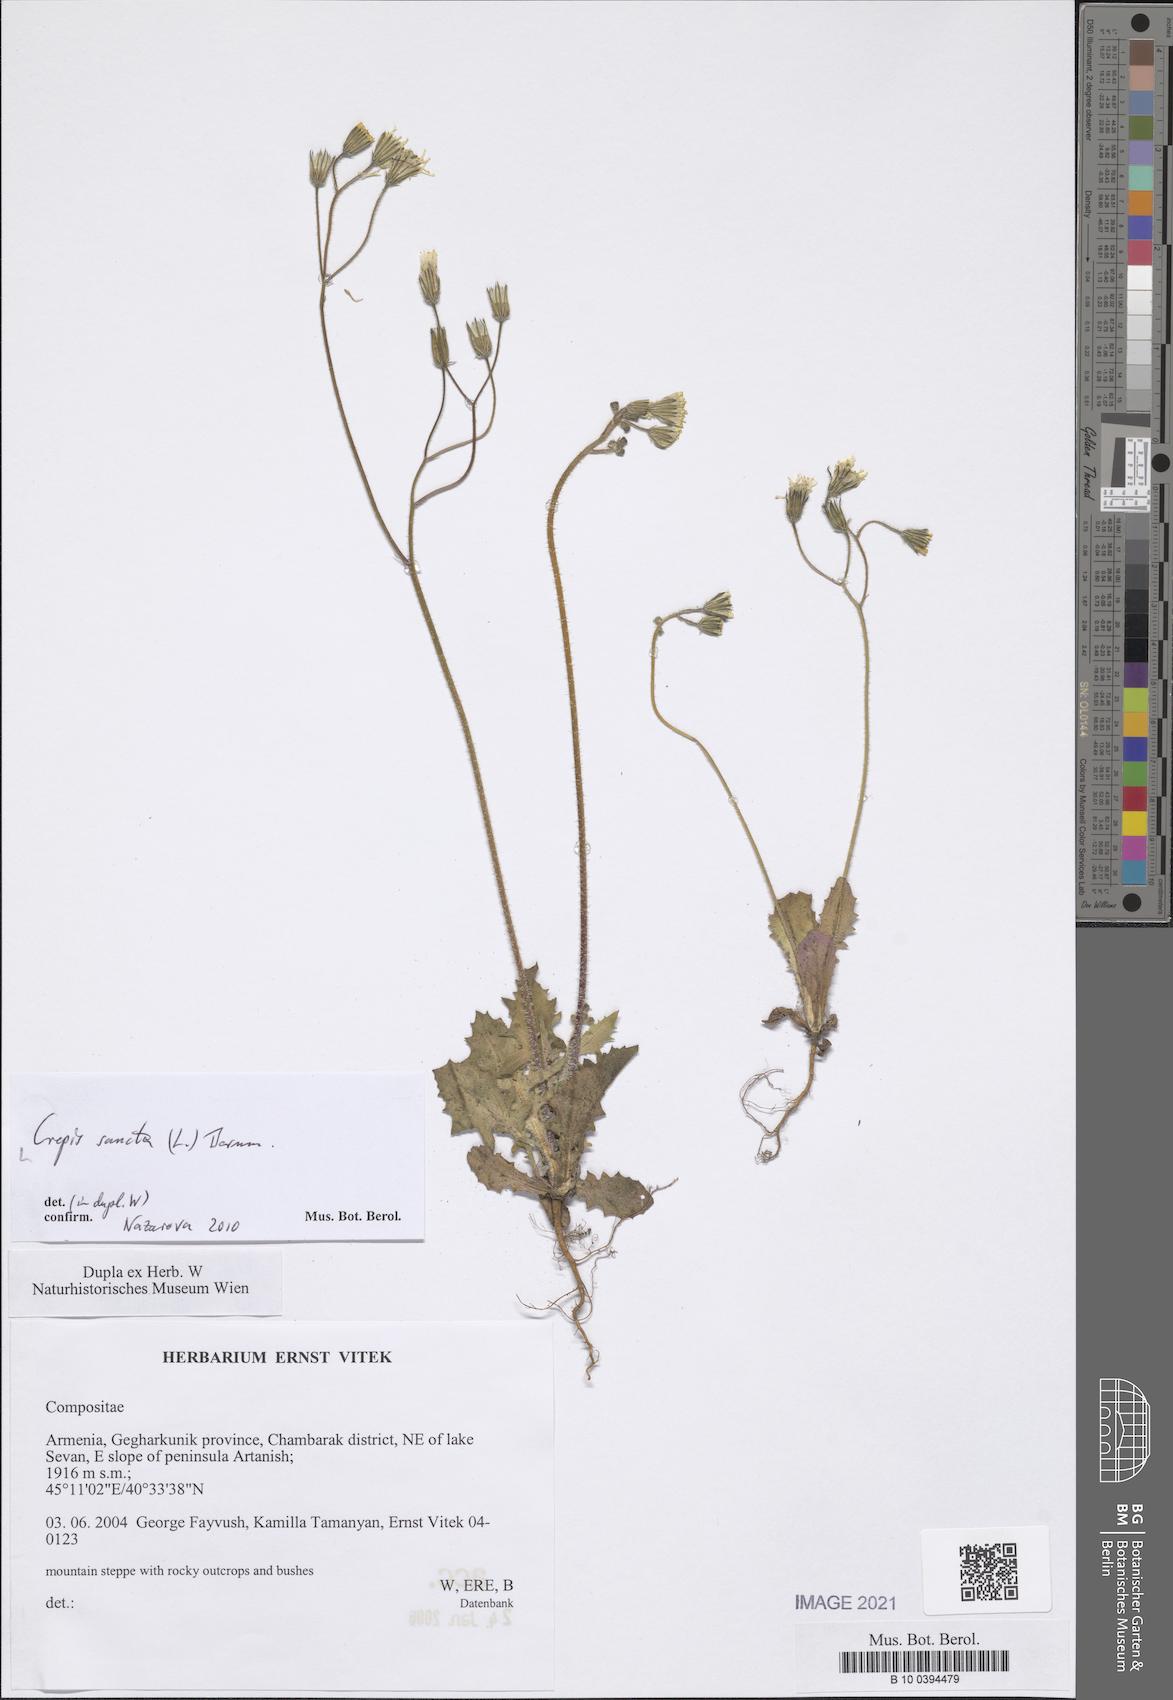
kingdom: Plantae
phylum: Tracheophyta
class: Magnoliopsida
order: Asterales
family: Asteraceae
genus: Crepis
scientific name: Crepis sancta
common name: Hawk's-beard
